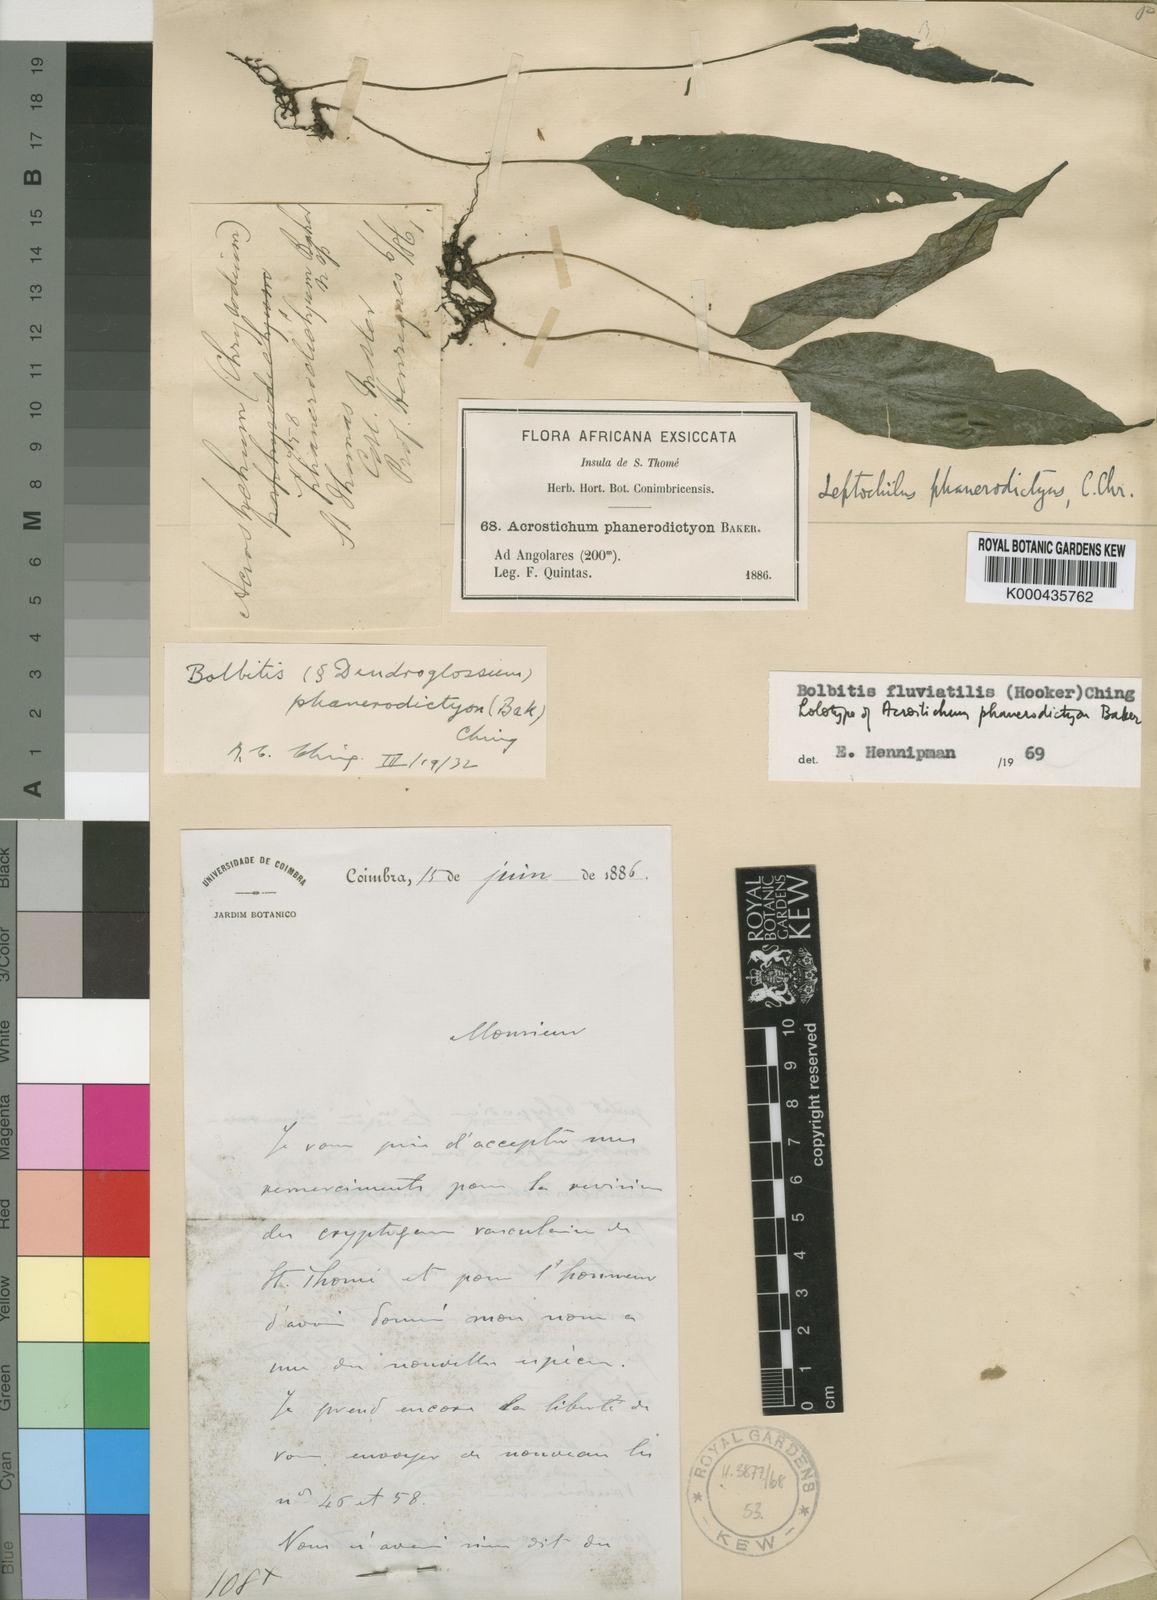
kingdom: Plantae
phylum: Tracheophyta
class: Polypodiopsida
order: Polypodiales
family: Dryopteridaceae
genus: Bolbitis
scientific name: Bolbitis fluviatilis
